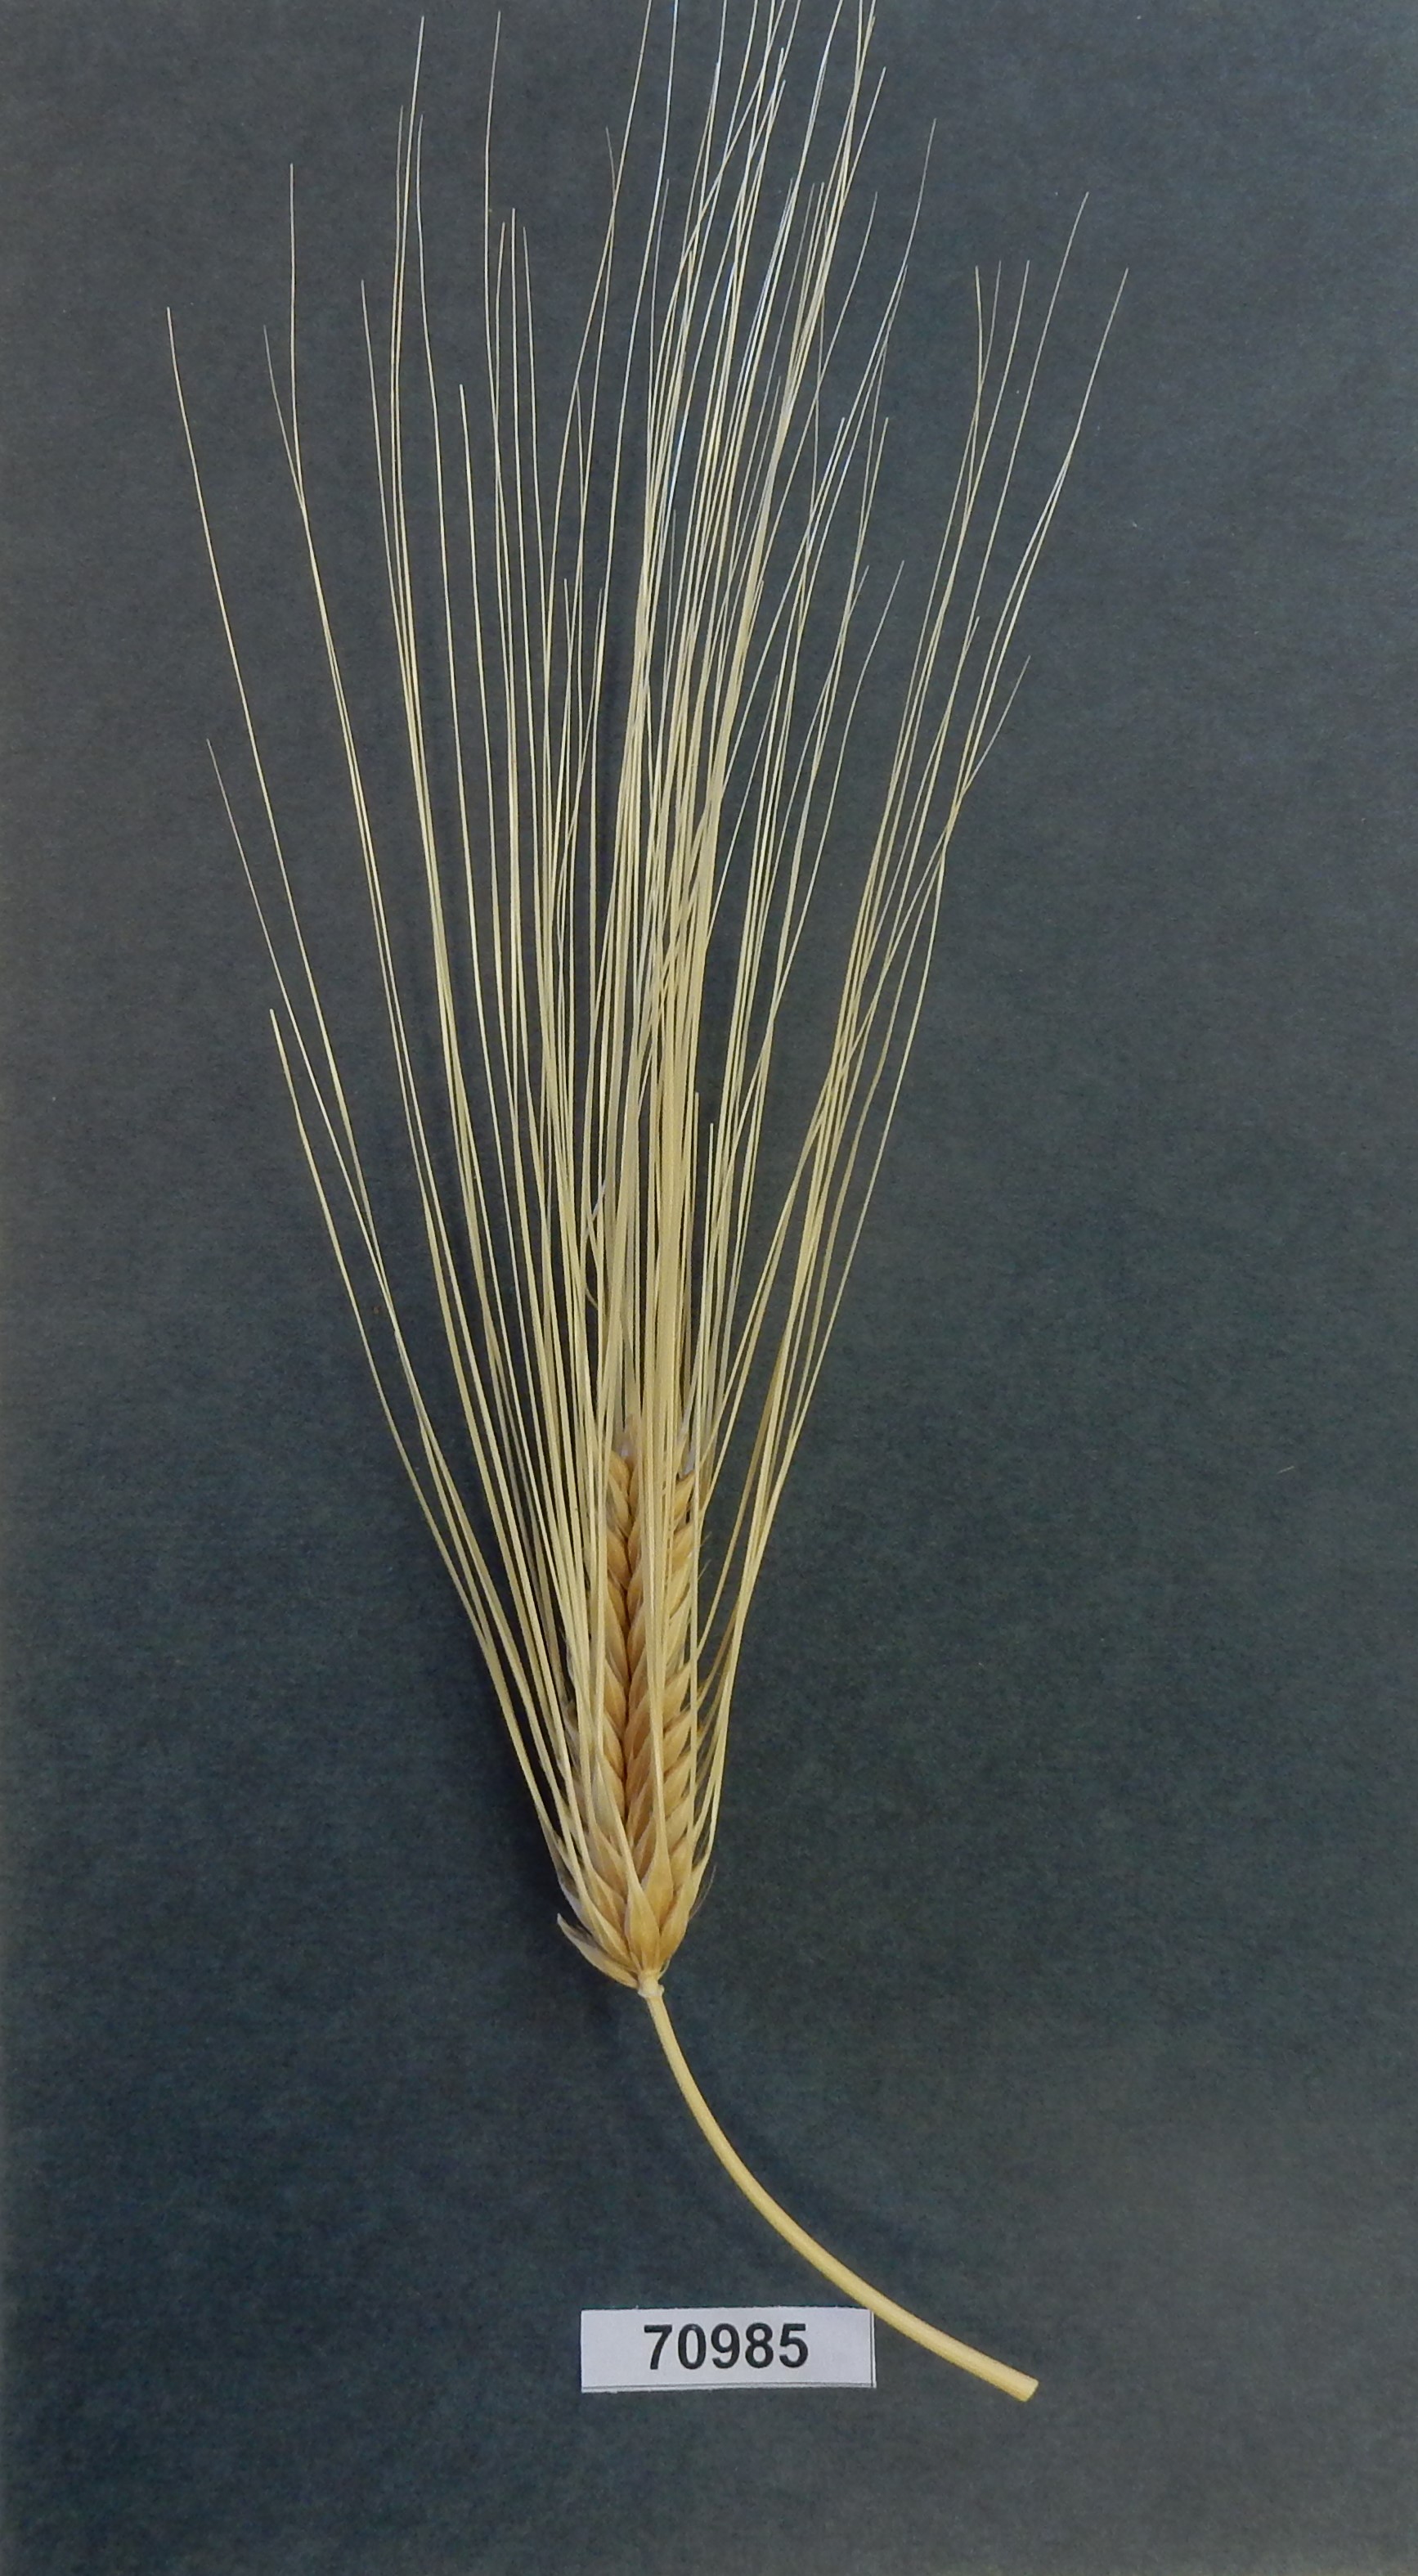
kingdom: Plantae
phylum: Tracheophyta
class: Liliopsida
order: Poales
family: Poaceae
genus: Hordeum
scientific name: Hordeum vulgare
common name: Barley
